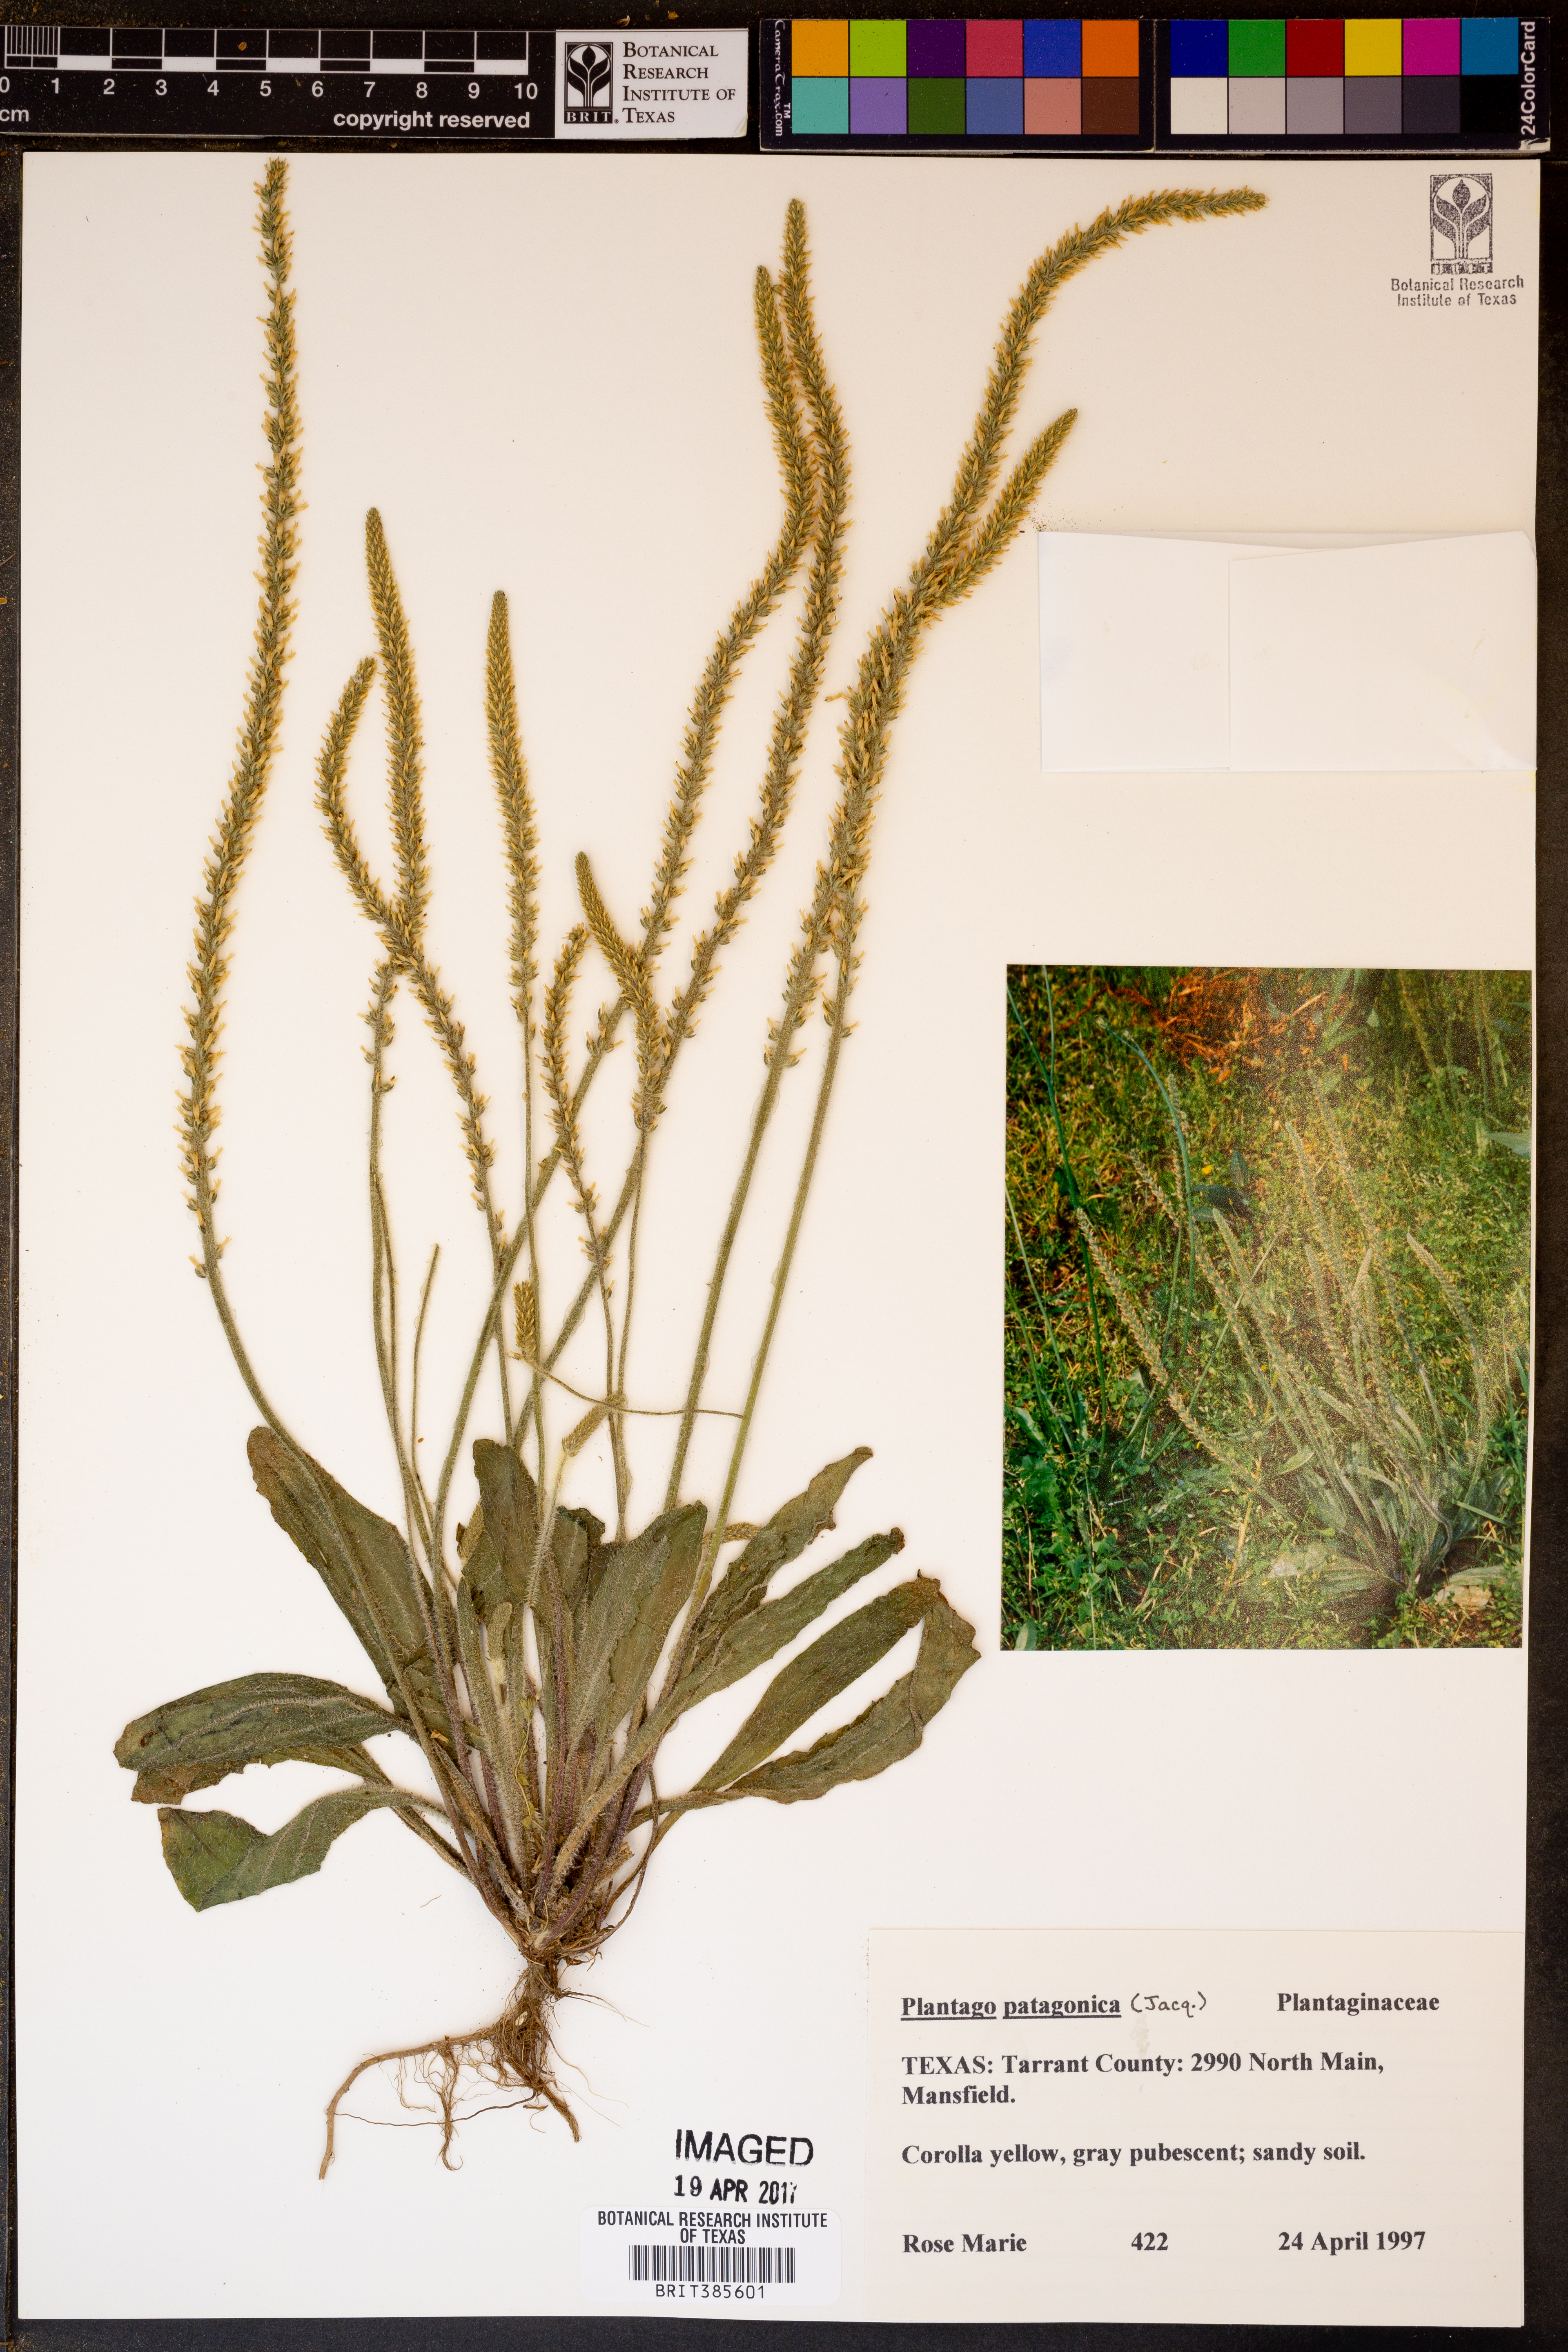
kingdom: Plantae
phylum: Tracheophyta
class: Magnoliopsida
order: Lamiales
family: Plantaginaceae
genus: Plantago
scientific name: Plantago patagonica
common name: Patagonia indian-wheat
